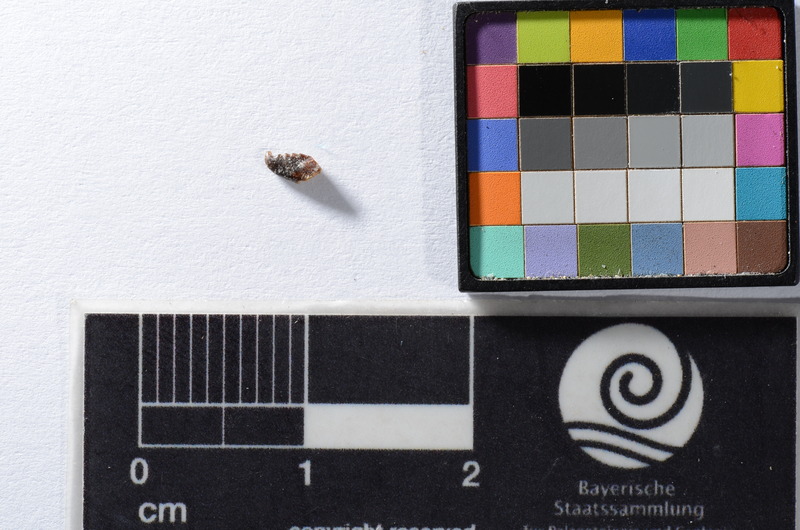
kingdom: Animalia
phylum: Chordata
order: Cypriniformes
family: Cyprinidae
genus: Leuciscus
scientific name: Leuciscus
